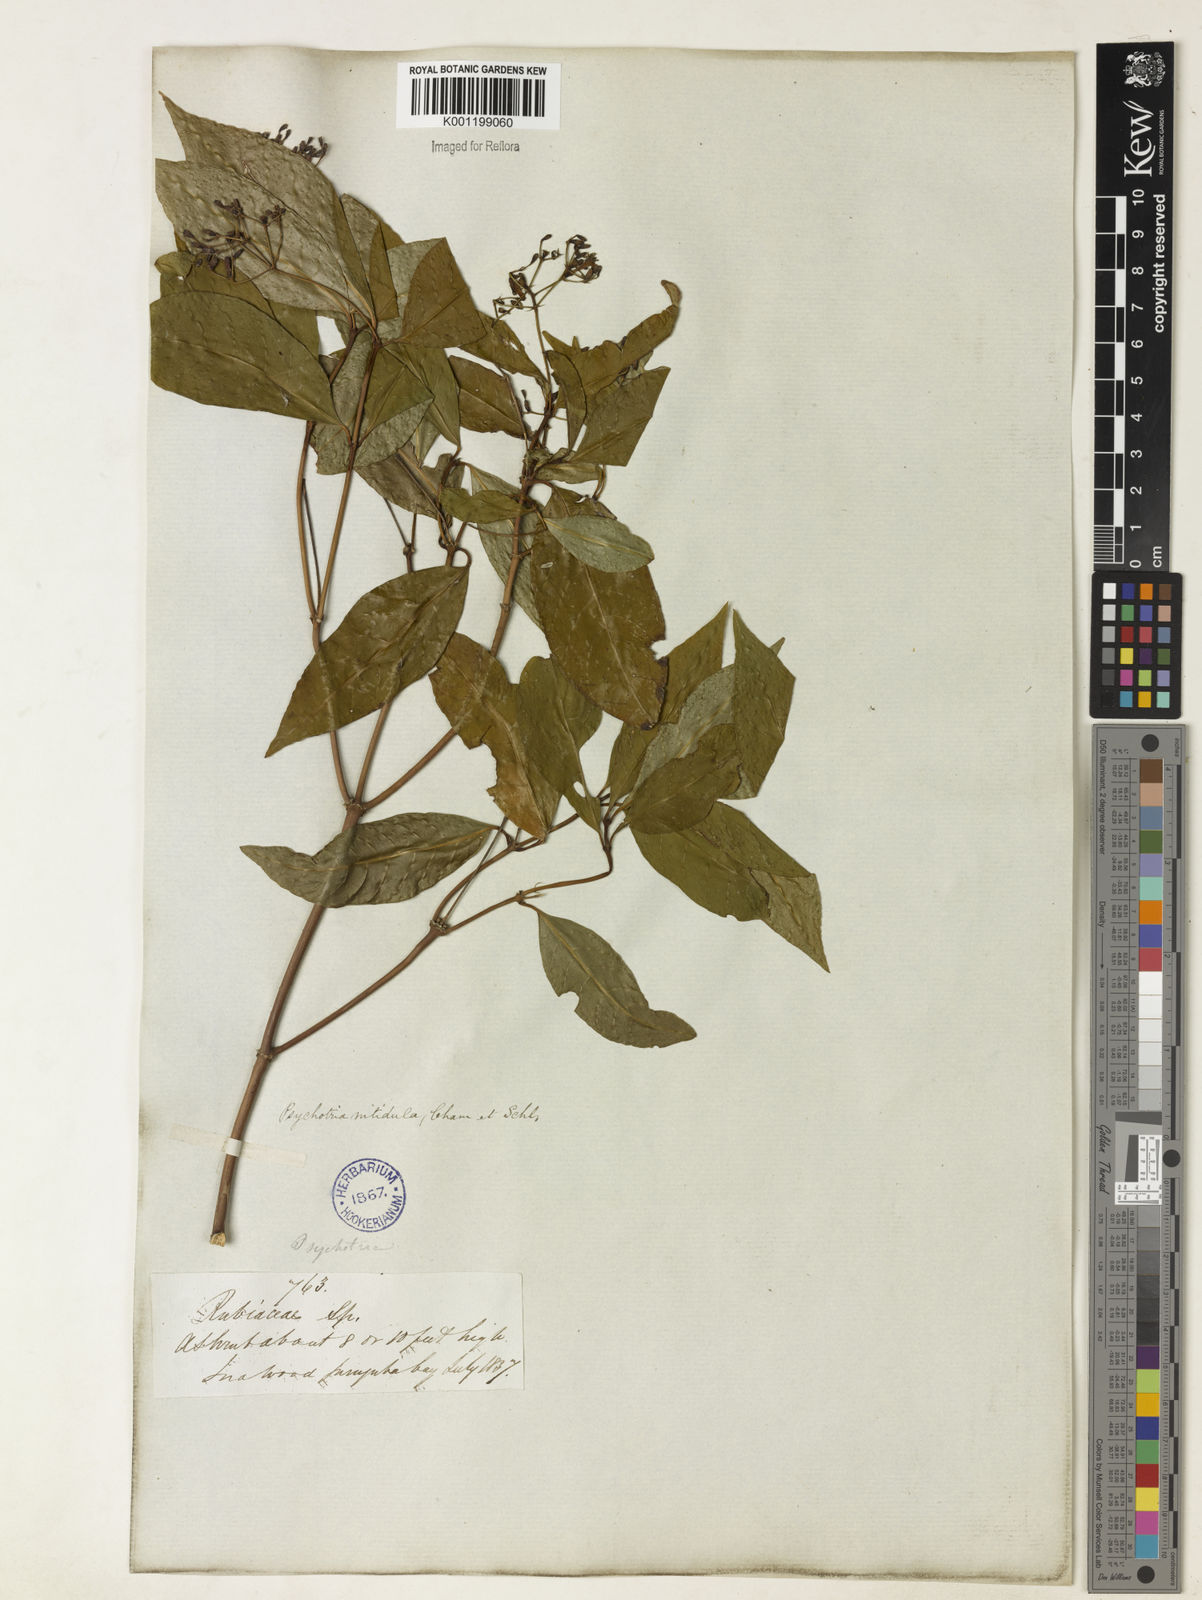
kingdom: Plantae
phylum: Tracheophyta
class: Magnoliopsida
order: Gentianales
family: Rubiaceae
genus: Psychotria
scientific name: Psychotria leiocarpa
